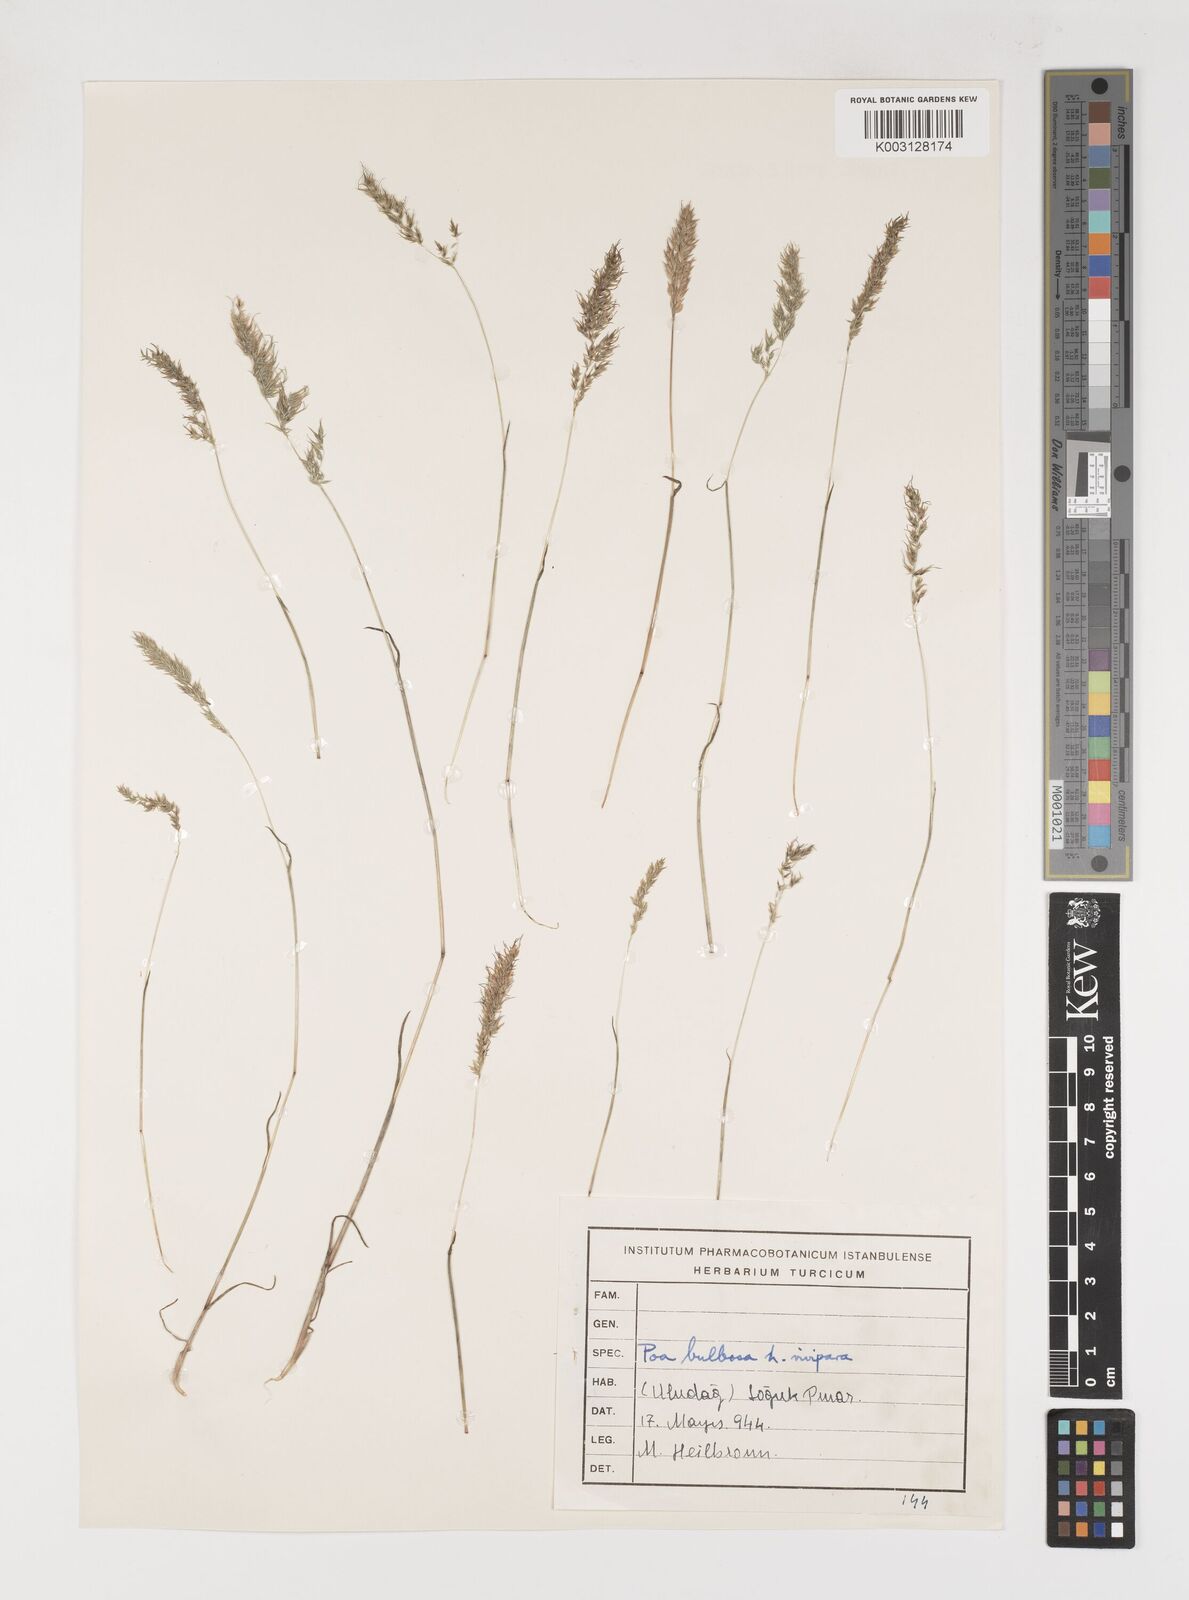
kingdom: Plantae
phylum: Tracheophyta
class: Liliopsida
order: Poales
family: Poaceae
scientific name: Poaceae
